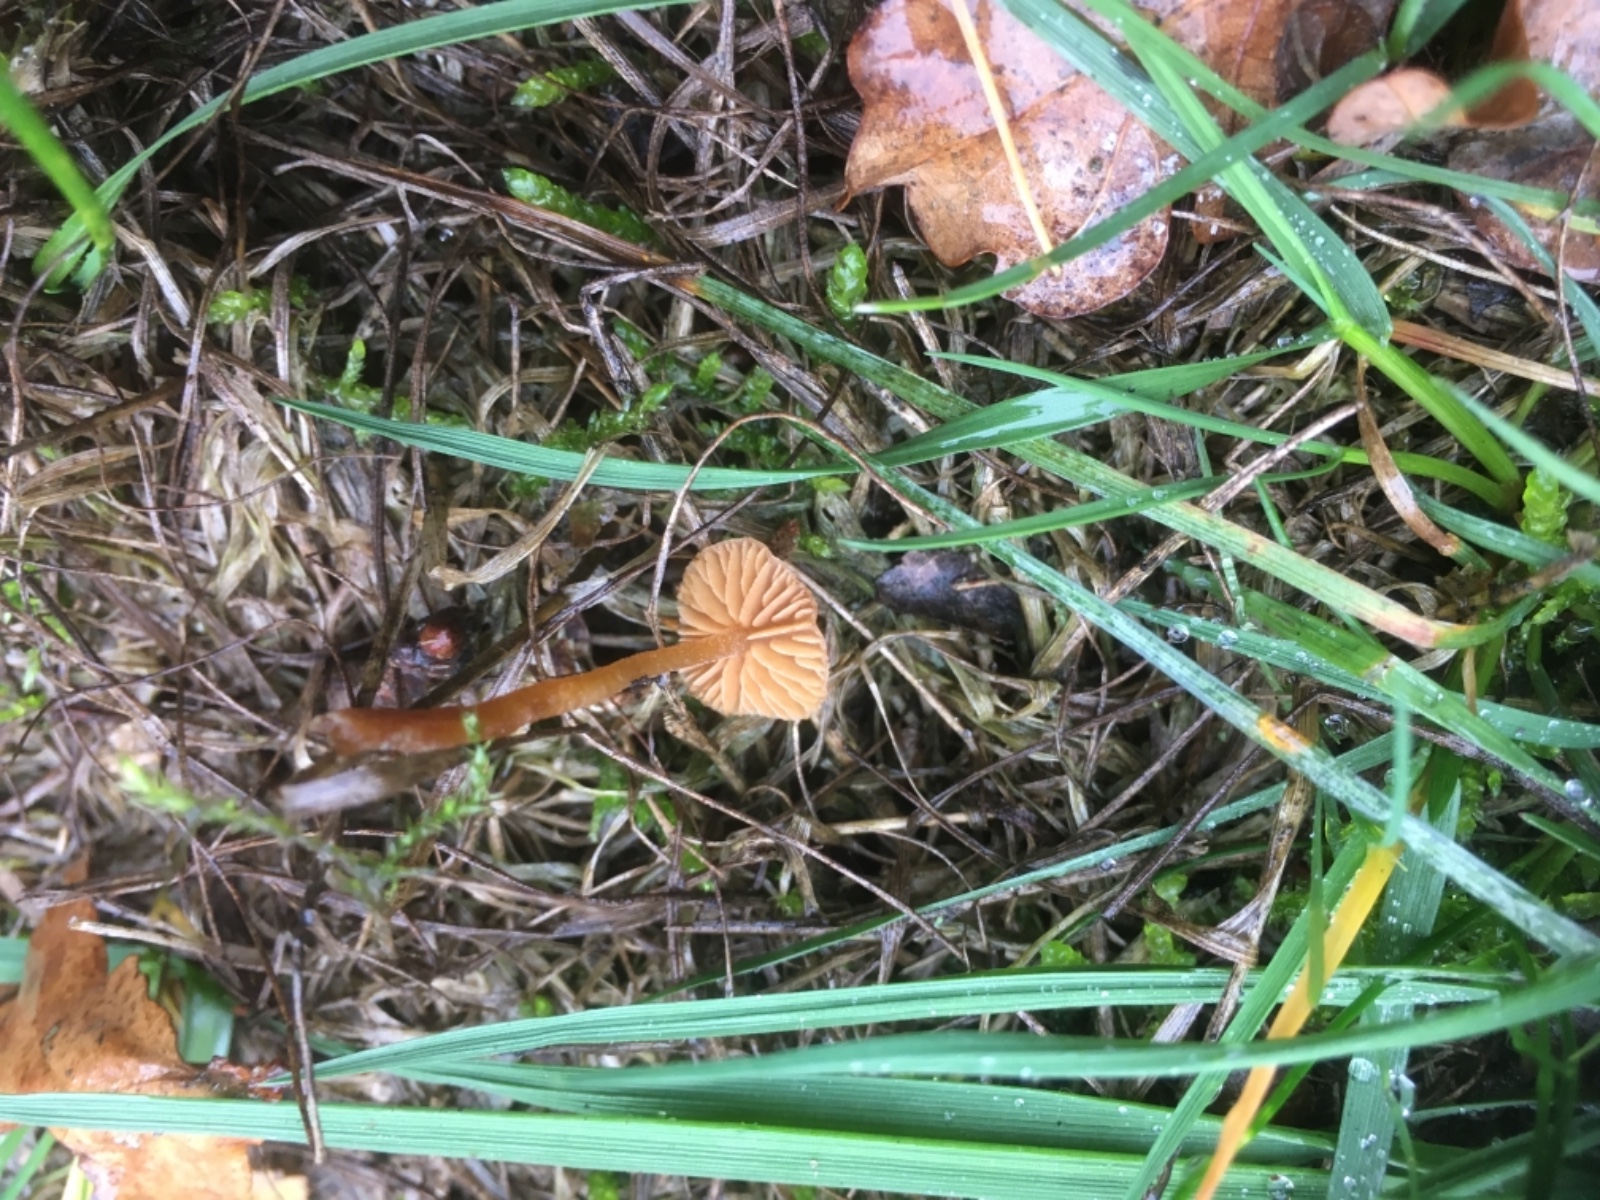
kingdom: Fungi
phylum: Basidiomycota
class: Agaricomycetes
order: Agaricales
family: Hymenogastraceae
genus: Galerina
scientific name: Galerina
